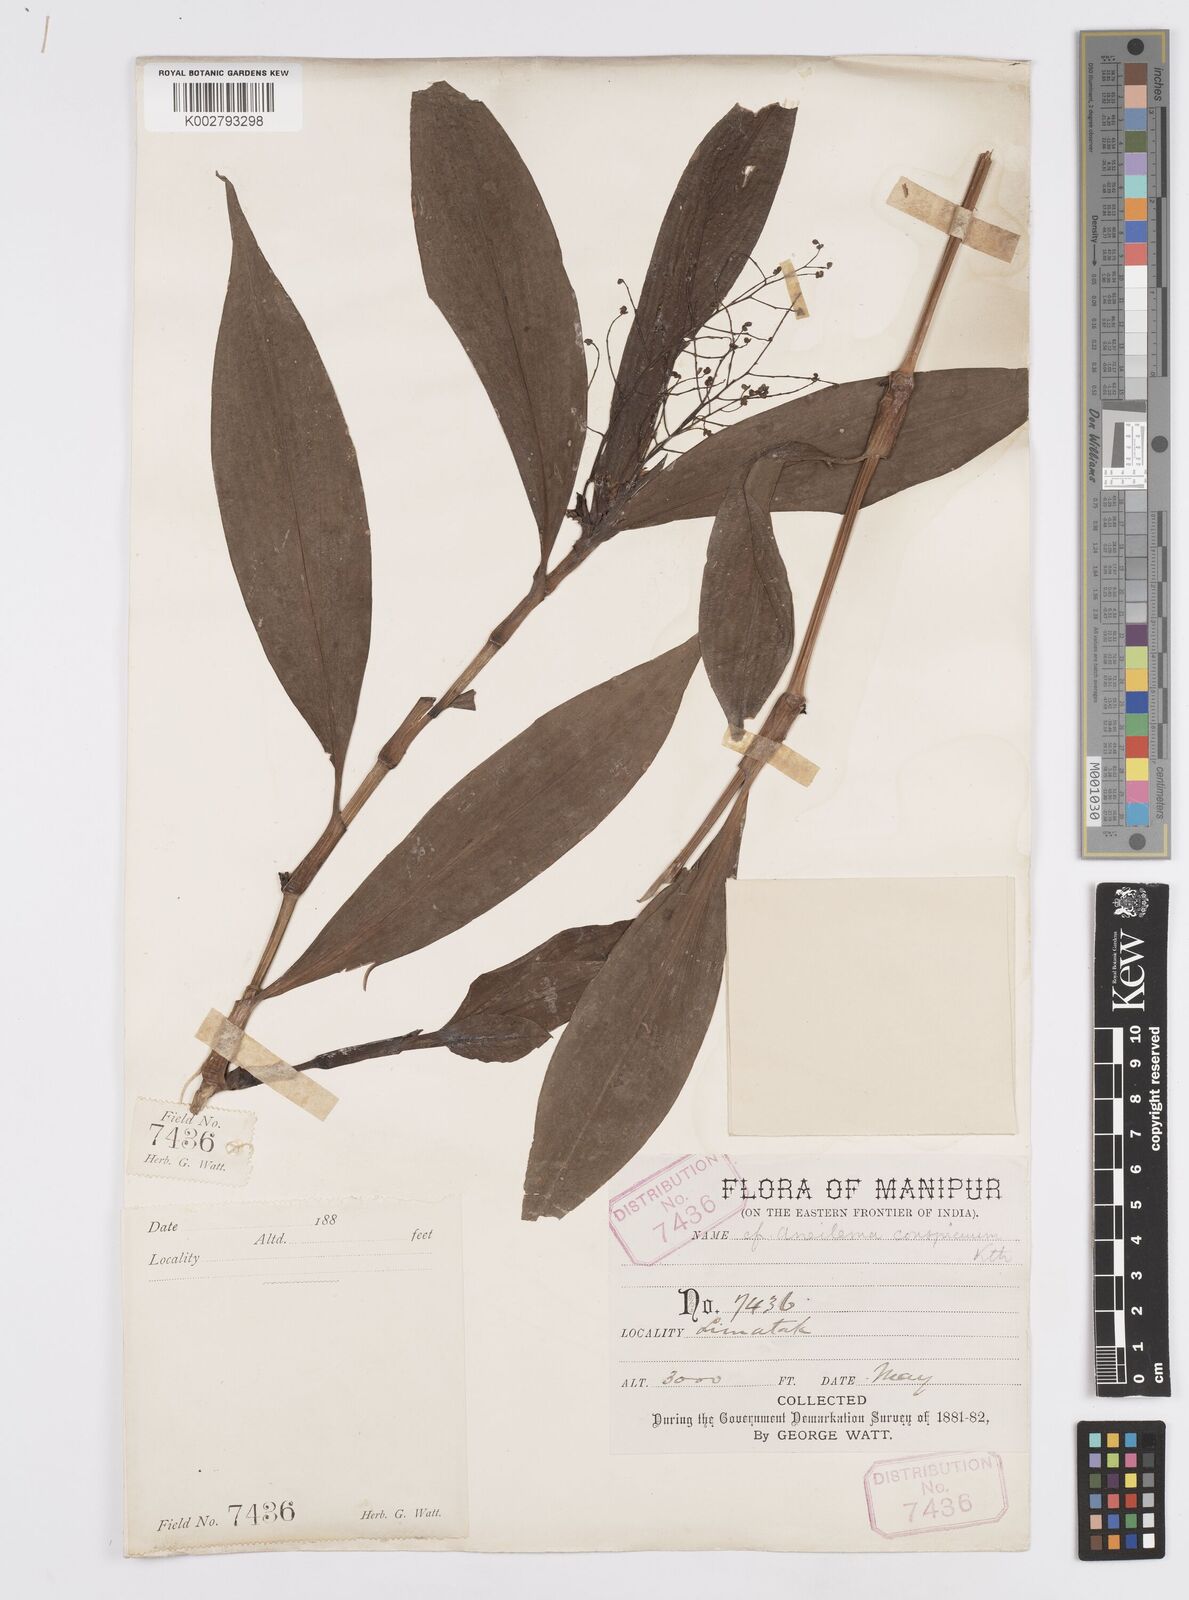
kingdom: Plantae
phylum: Tracheophyta
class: Liliopsida
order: Commelinales
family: Commelinaceae
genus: Murdannia
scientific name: Murdannia
